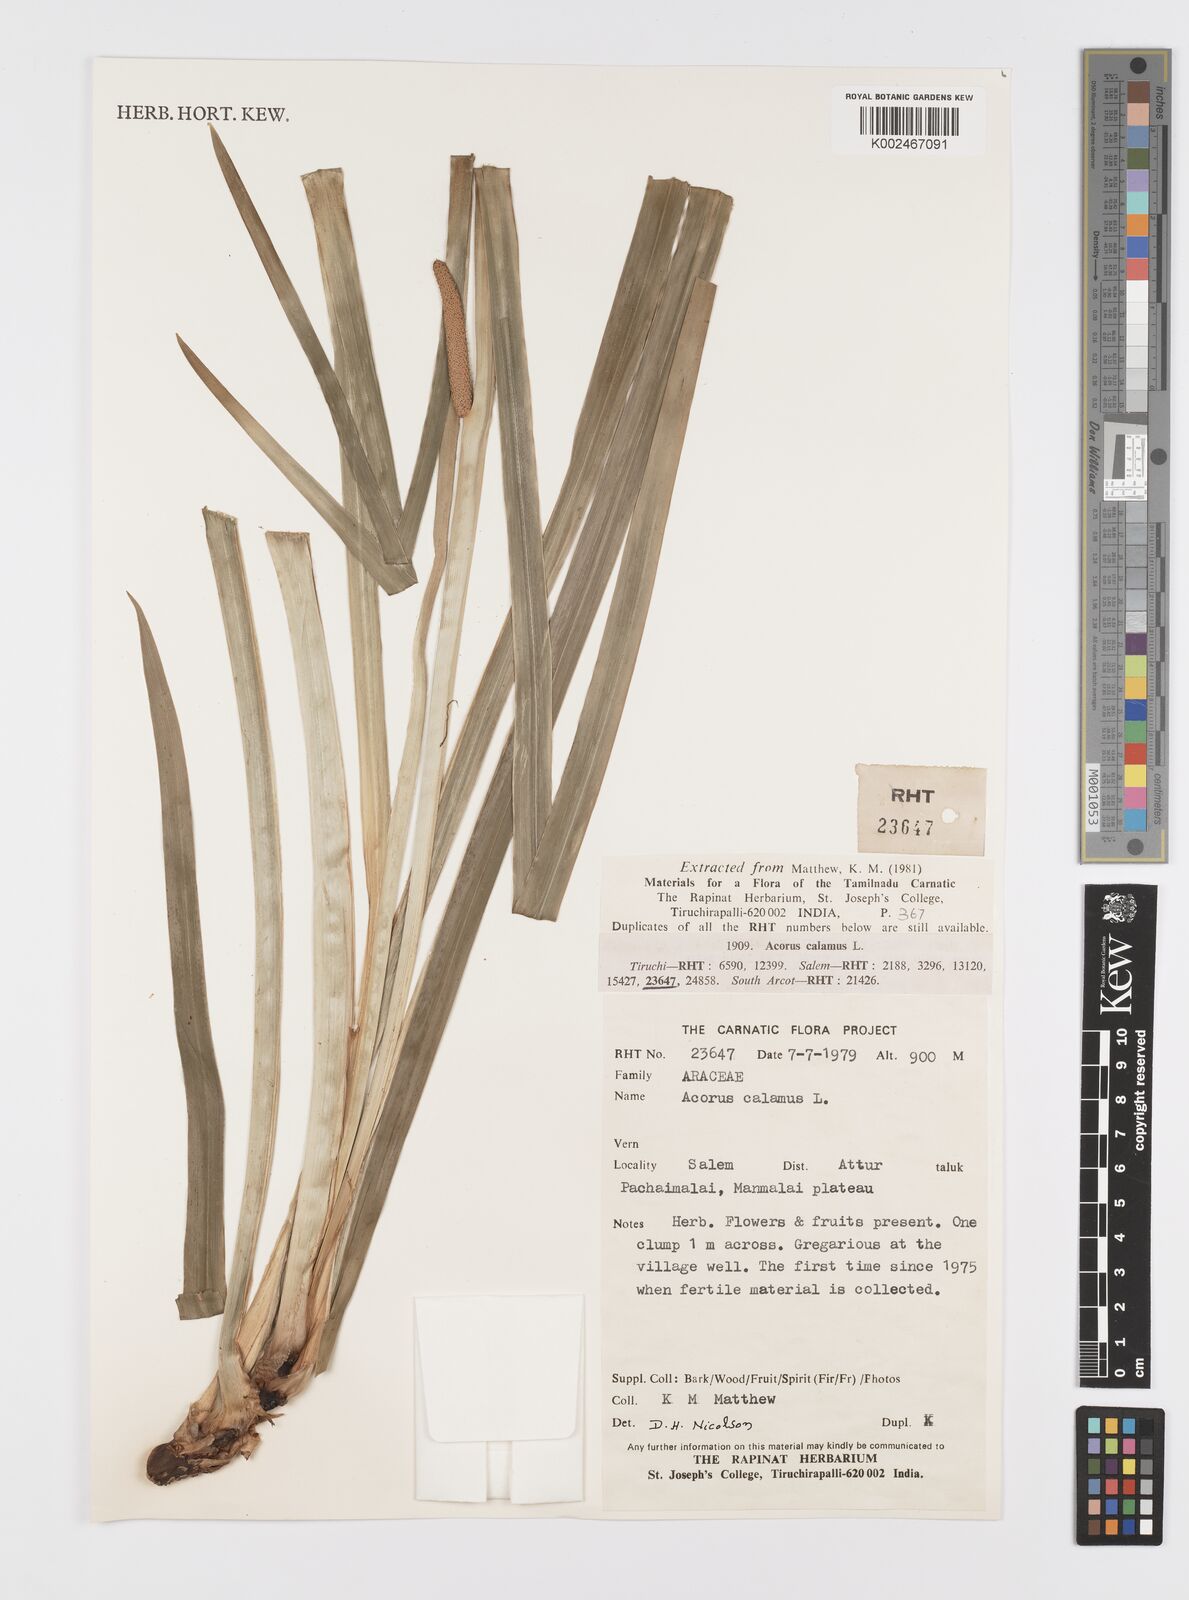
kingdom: Plantae
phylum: Tracheophyta
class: Liliopsida
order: Acorales
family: Acoraceae
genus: Acorus
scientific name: Acorus calamus
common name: Sweet-flag
